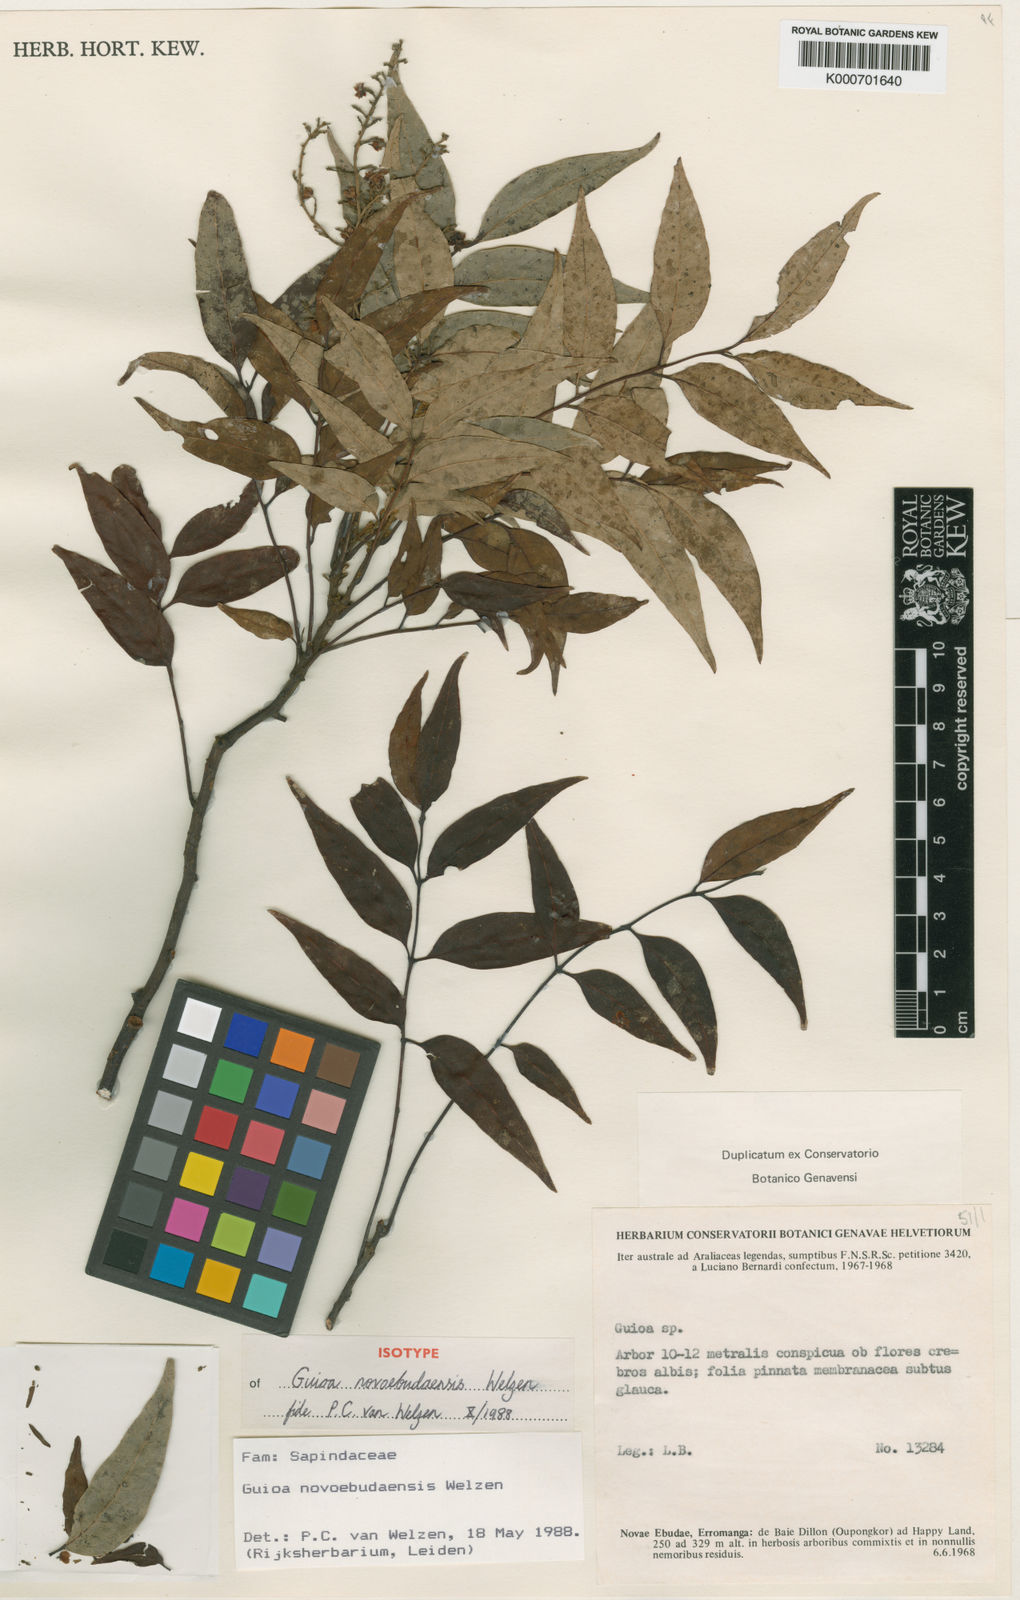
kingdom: Plantae
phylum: Tracheophyta
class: Magnoliopsida
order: Sapindales
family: Sapindaceae
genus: Guioa
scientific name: Guioa novoebudaensis
